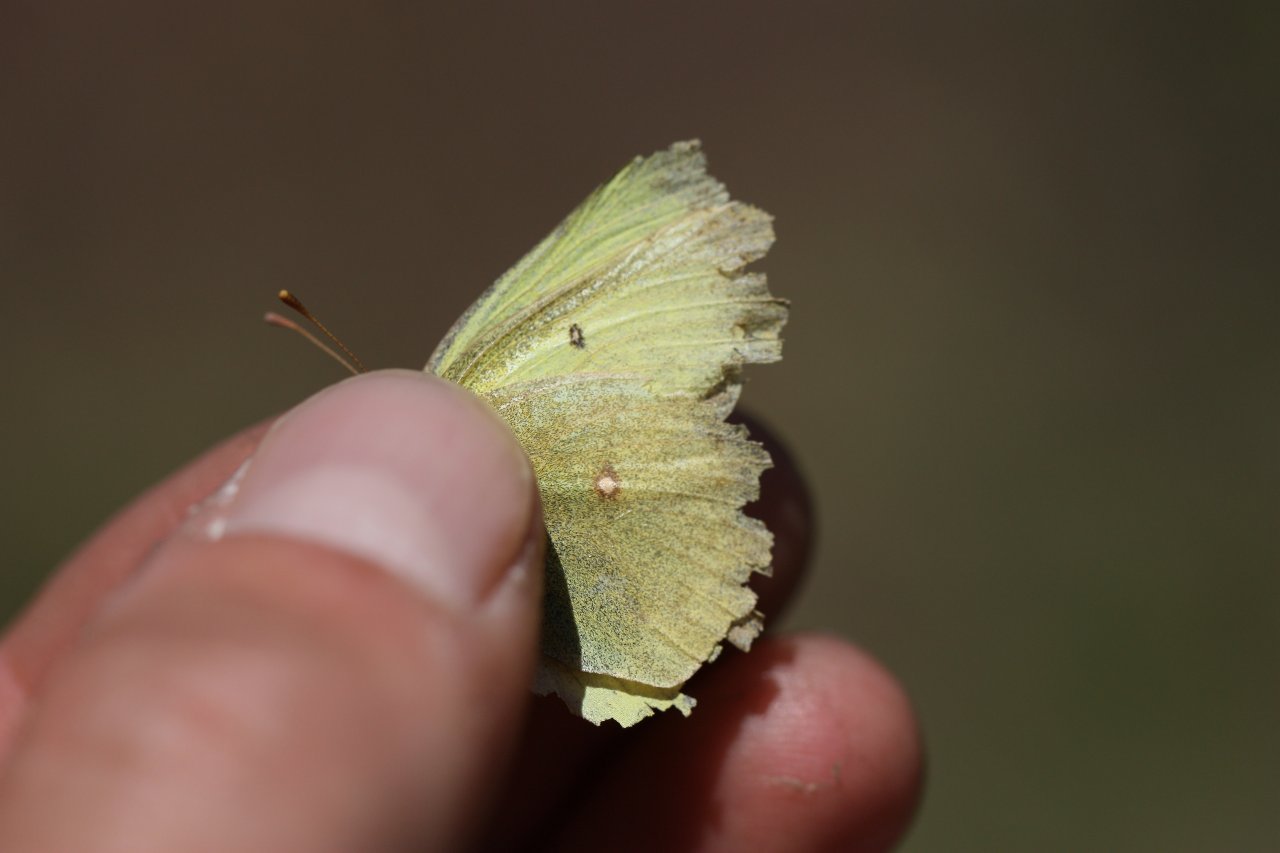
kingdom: Animalia
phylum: Arthropoda
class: Insecta
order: Lepidoptera
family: Pieridae
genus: Colias
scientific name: Colias eurytheme
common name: Orange Sulphur
